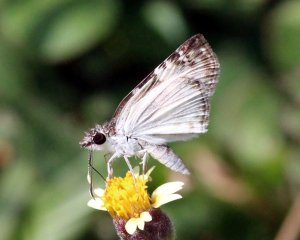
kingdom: Animalia
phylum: Arthropoda
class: Insecta
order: Lepidoptera
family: Hesperiidae
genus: Chiomara
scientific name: Chiomara asychis
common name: White-patched Skipper
